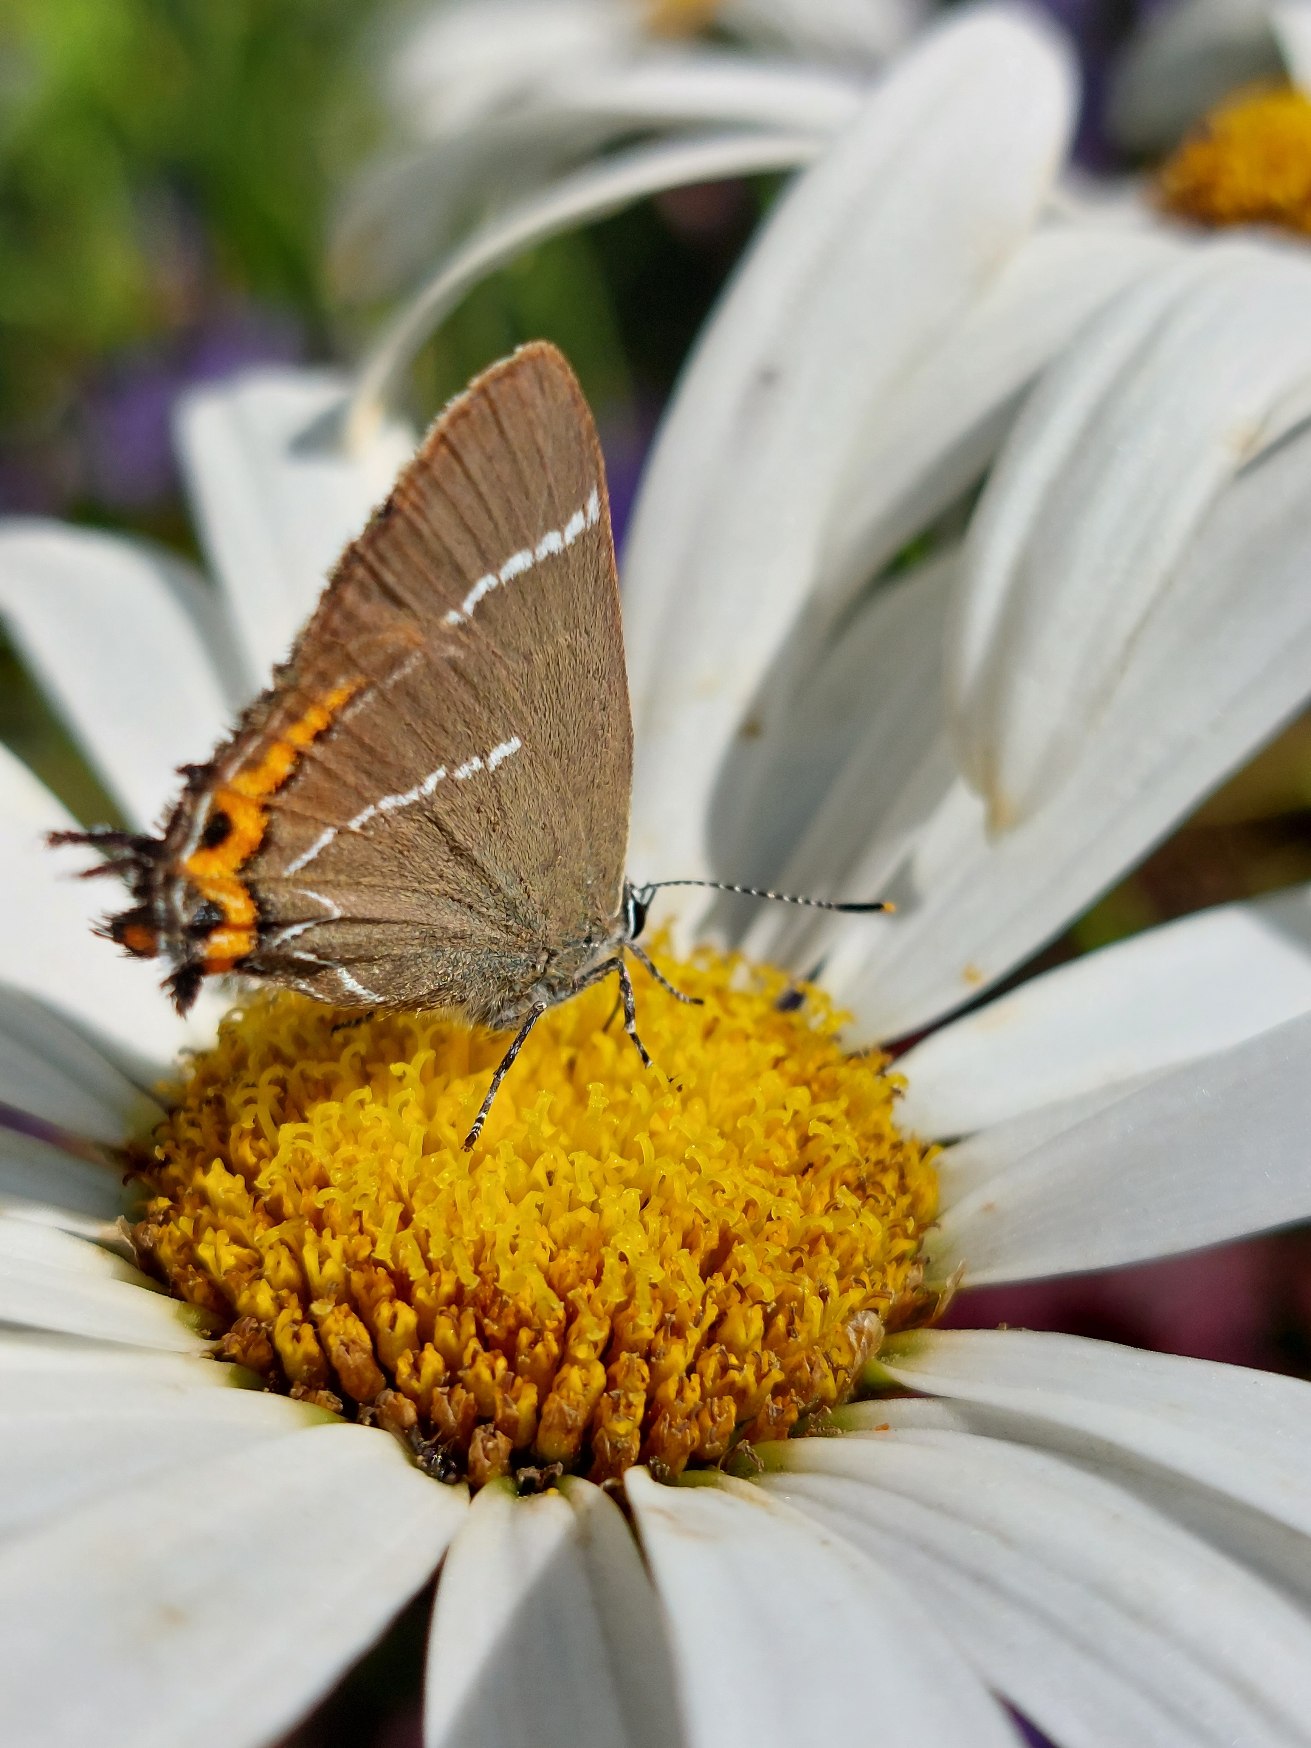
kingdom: Animalia
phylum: Arthropoda
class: Insecta
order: Lepidoptera
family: Lycaenidae
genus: Satyrium
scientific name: Satyrium w-album
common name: Det hvide W
